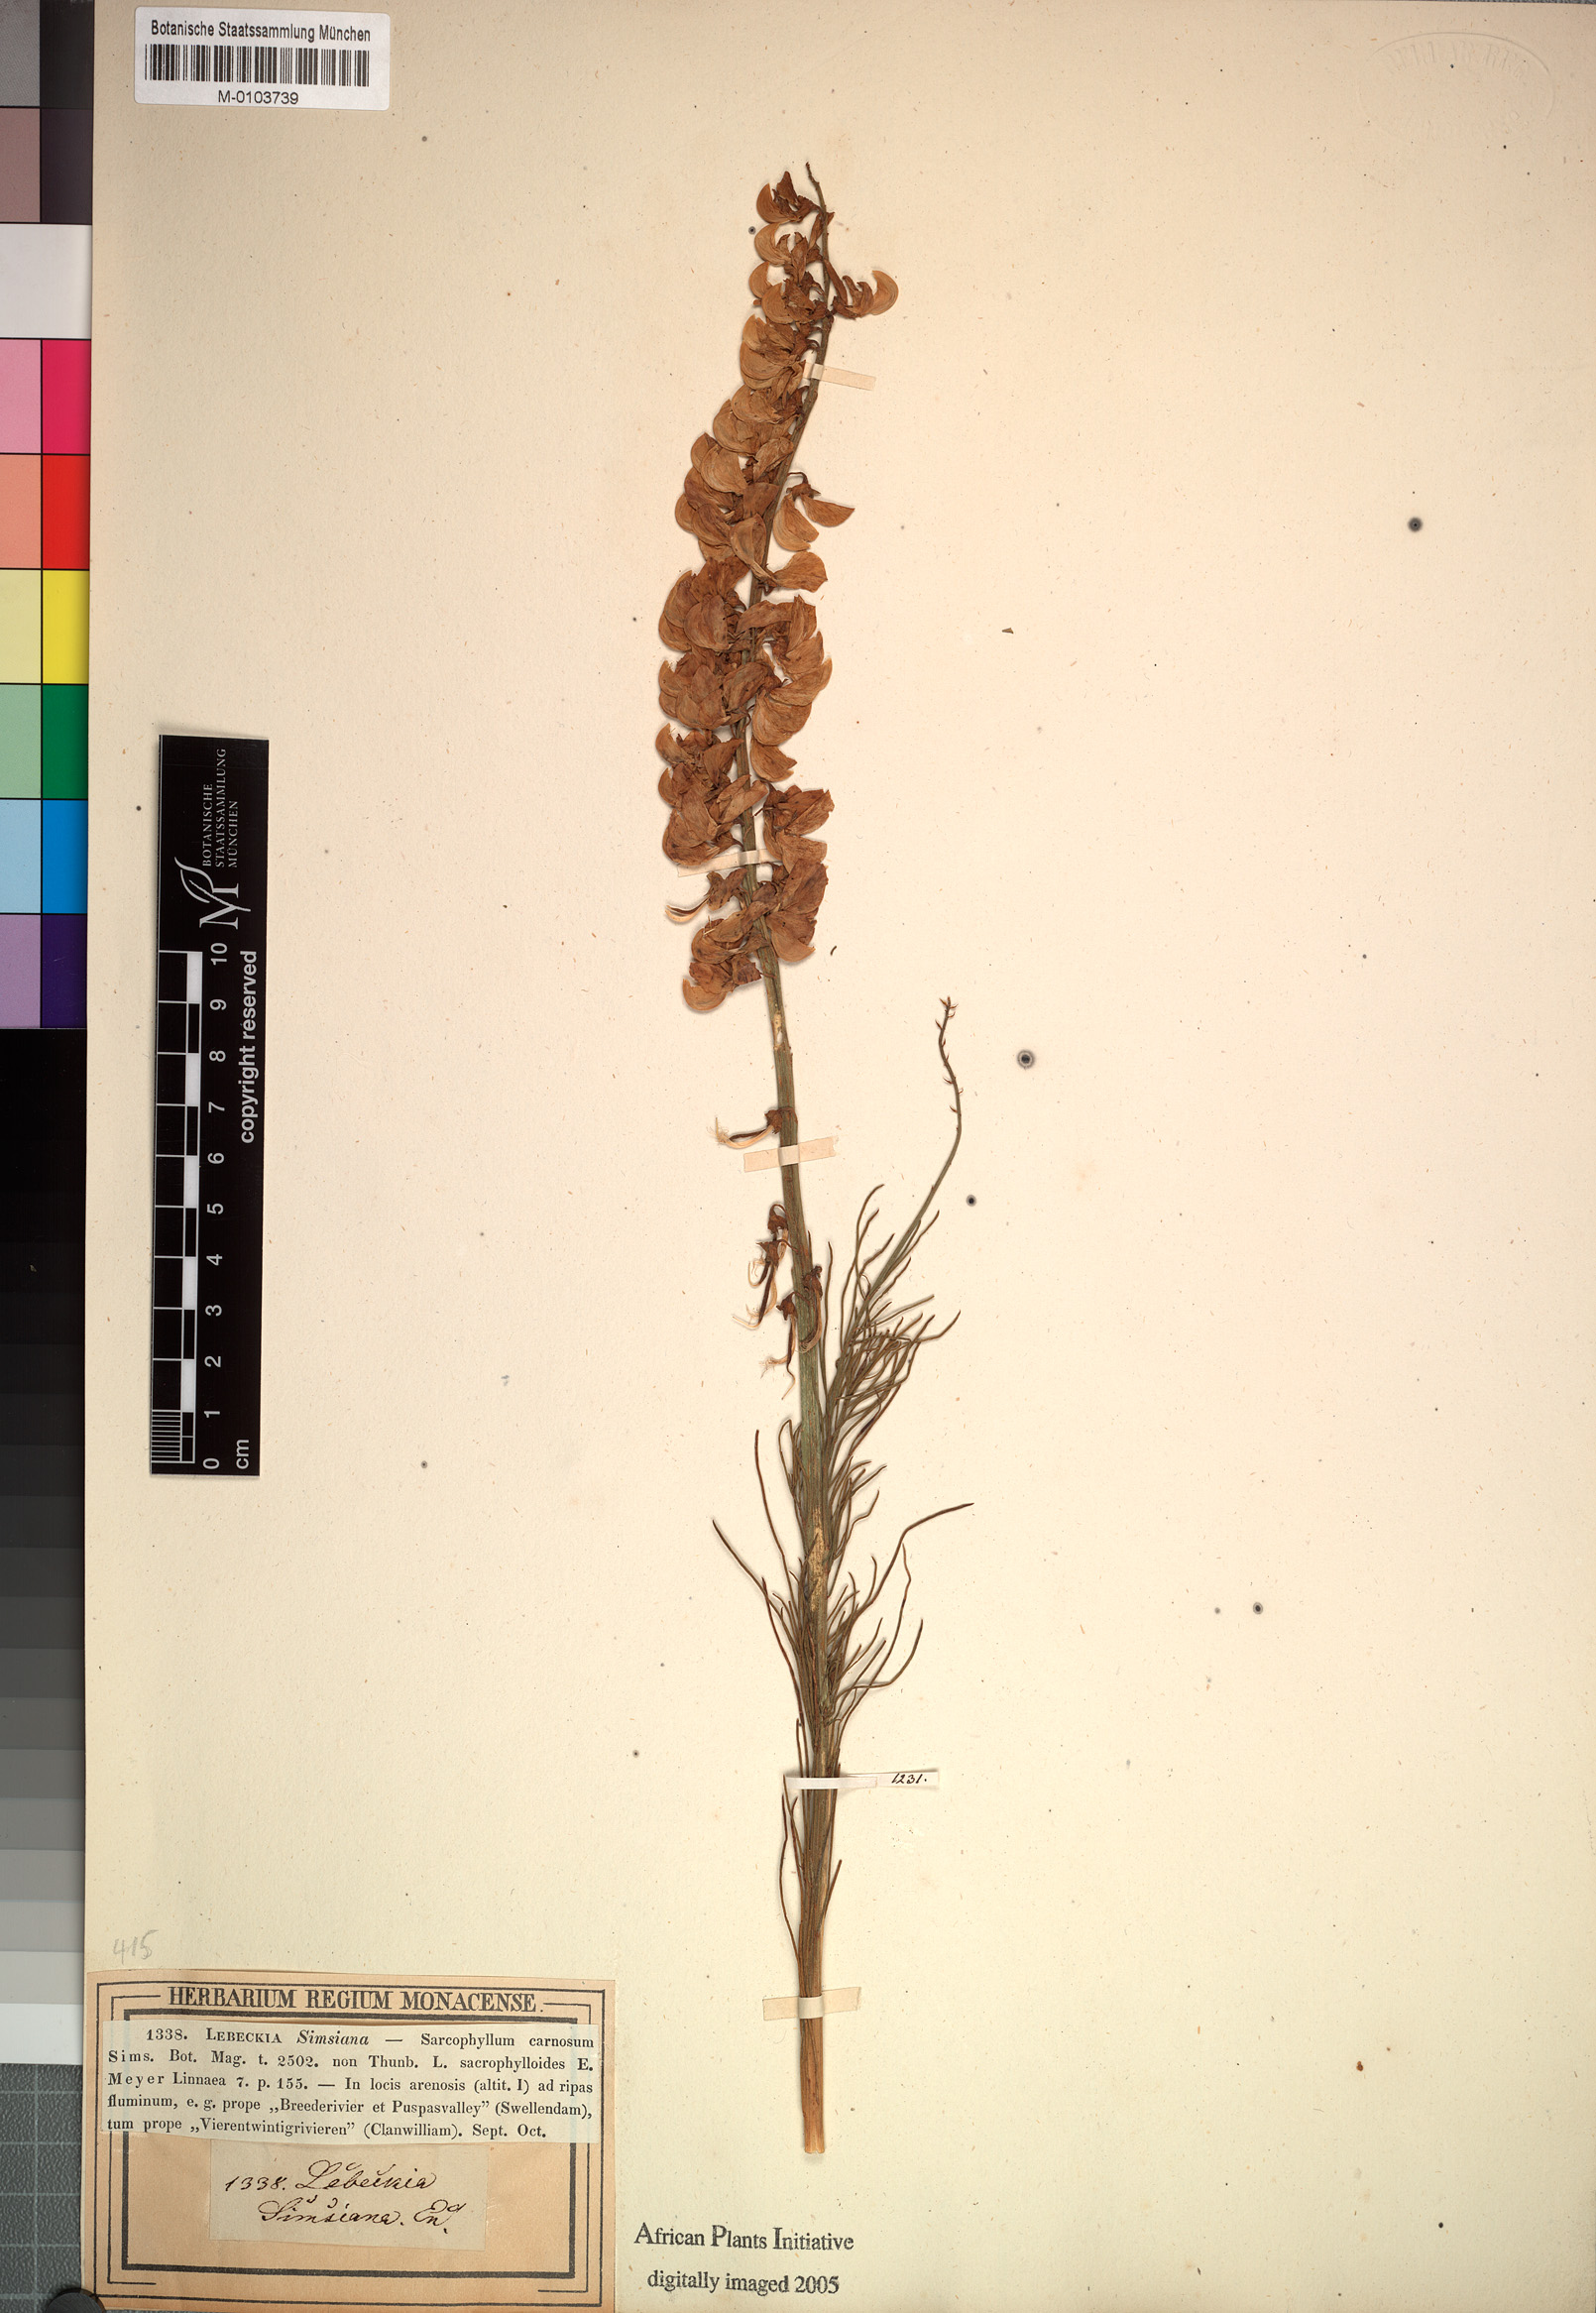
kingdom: Plantae
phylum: Tracheophyta
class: Magnoliopsida
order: Fabales
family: Fabaceae
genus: Wiborgiella
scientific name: Wiborgiella sessilifolia
